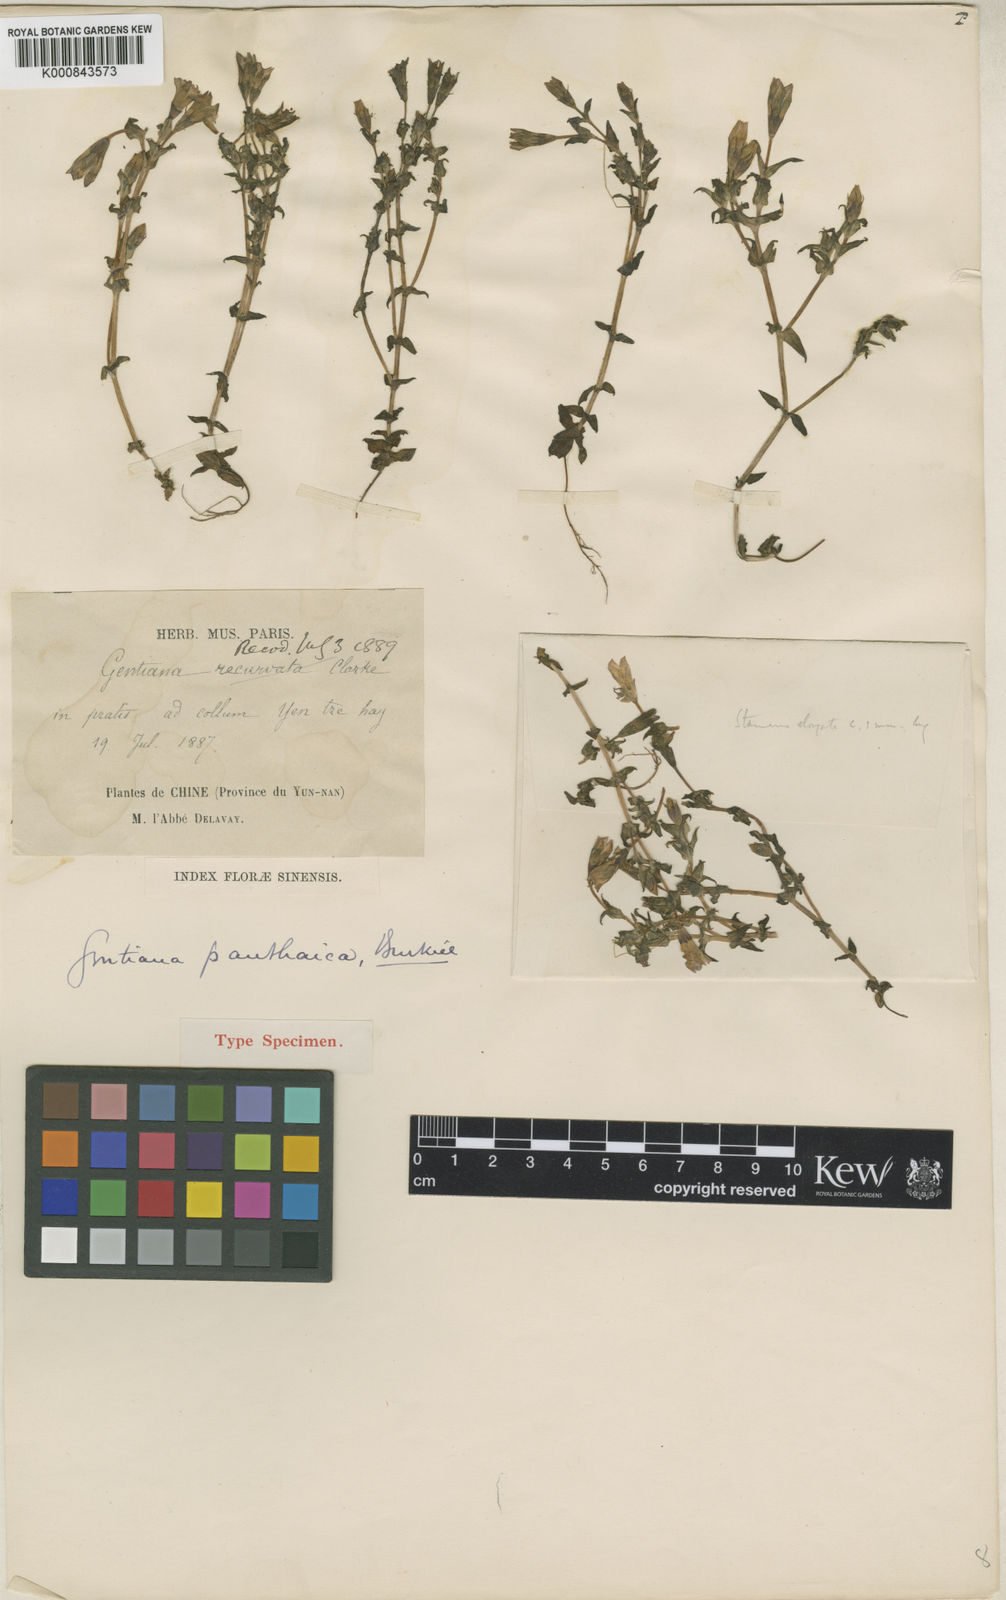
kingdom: Plantae
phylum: Tracheophyta
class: Magnoliopsida
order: Gentianales
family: Gentianaceae
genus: Gentiana
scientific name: Gentiana panthaica
